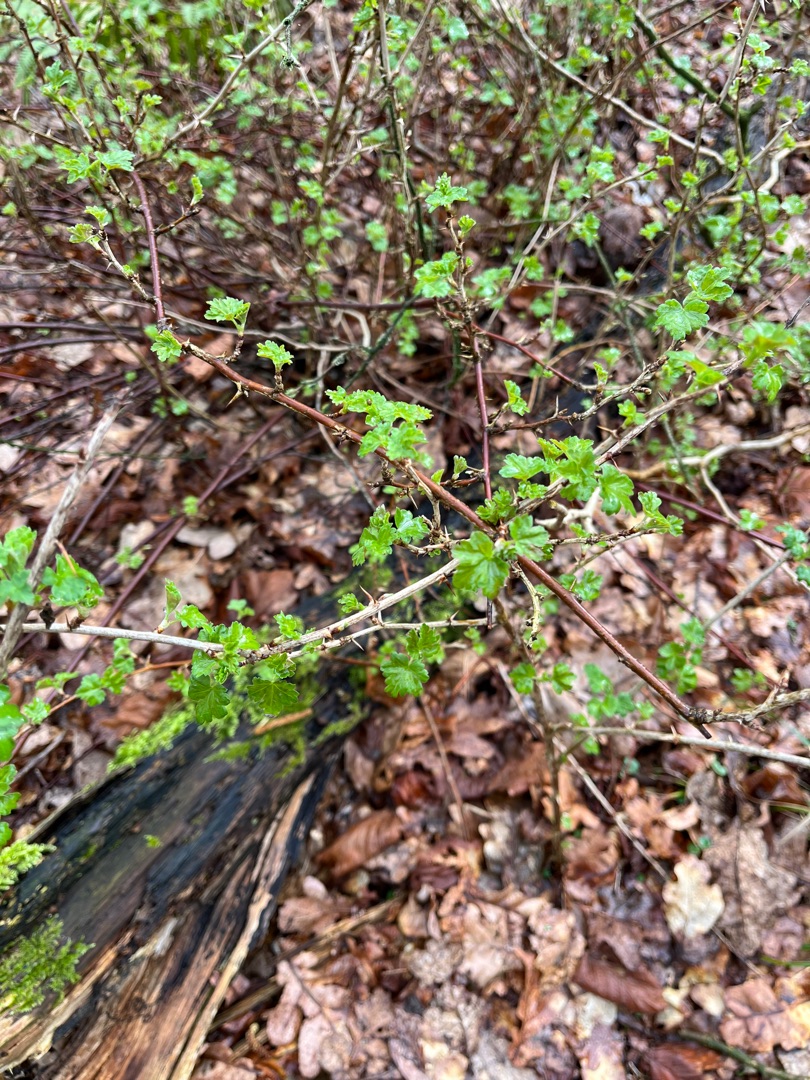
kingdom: Plantae
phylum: Tracheophyta
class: Magnoliopsida
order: Saxifragales
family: Grossulariaceae
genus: Ribes
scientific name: Ribes uva-crispa
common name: Stikkelsbær
